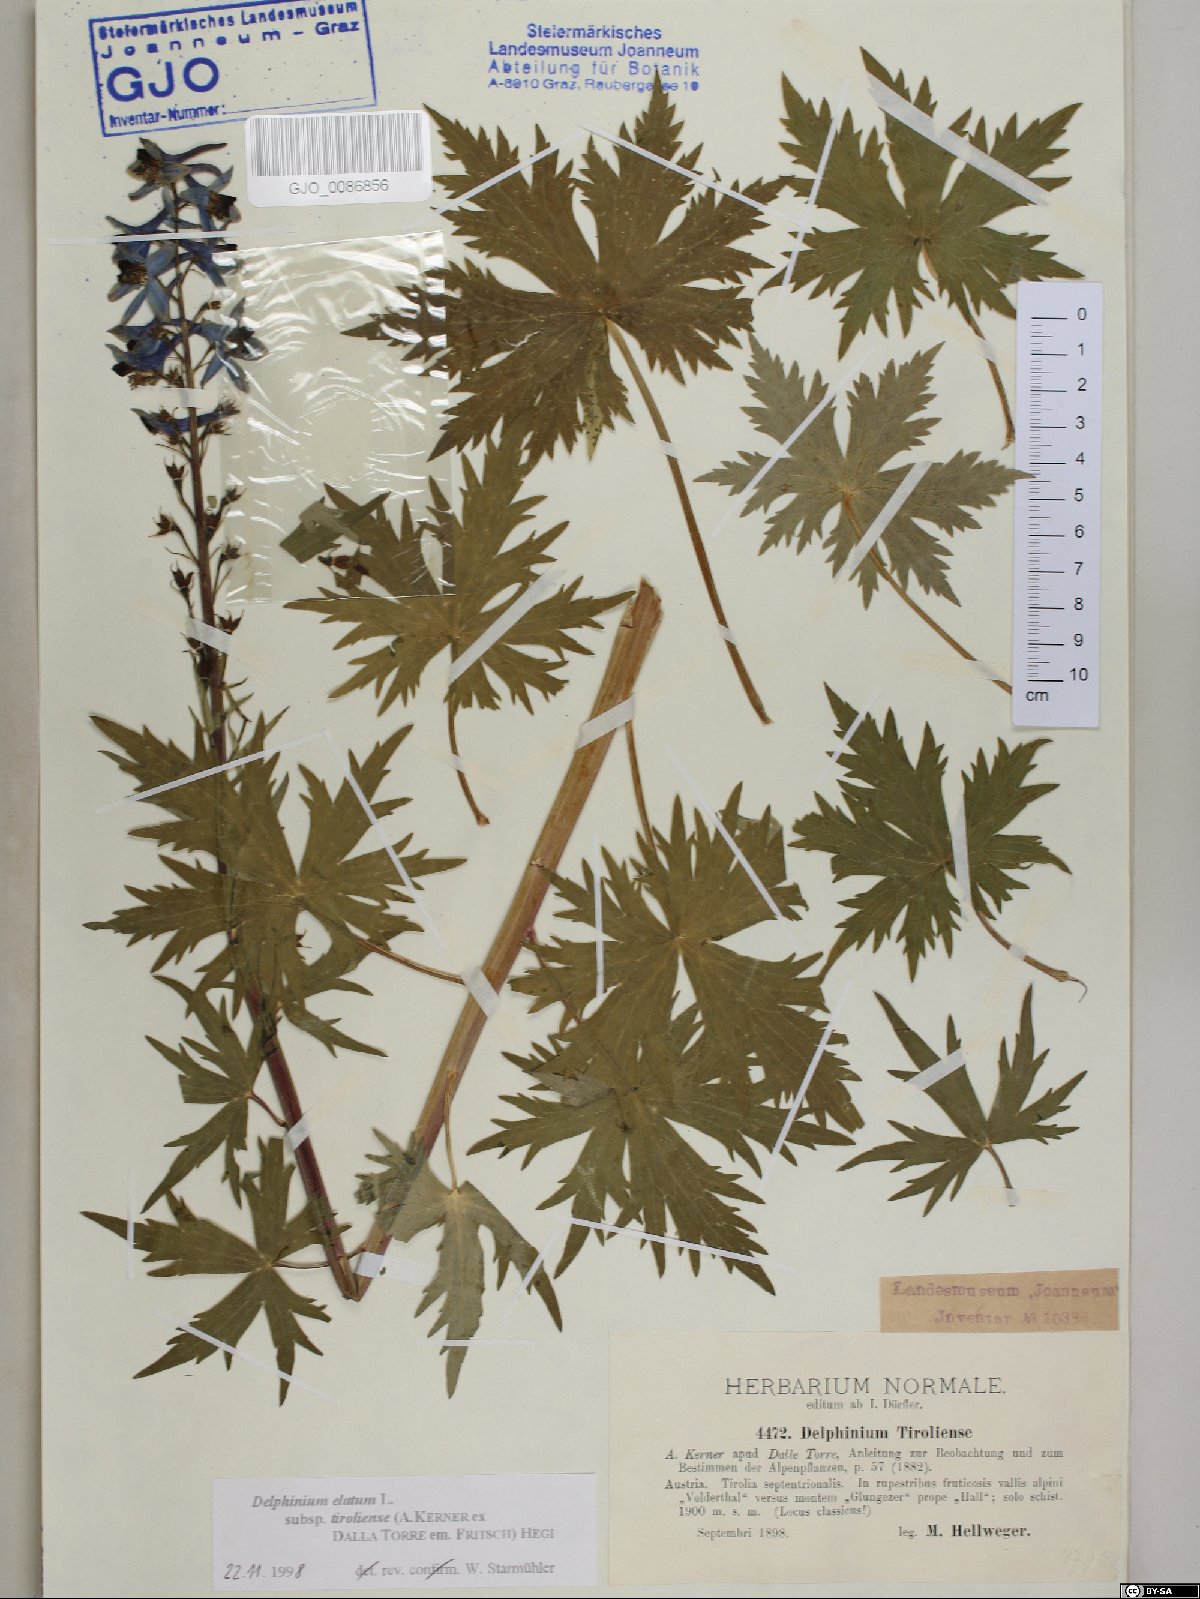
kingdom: Plantae
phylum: Tracheophyta
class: Magnoliopsida
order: Ranunculales
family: Ranunculaceae
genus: Delphinium
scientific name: Delphinium elatum
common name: Candle larkspur
